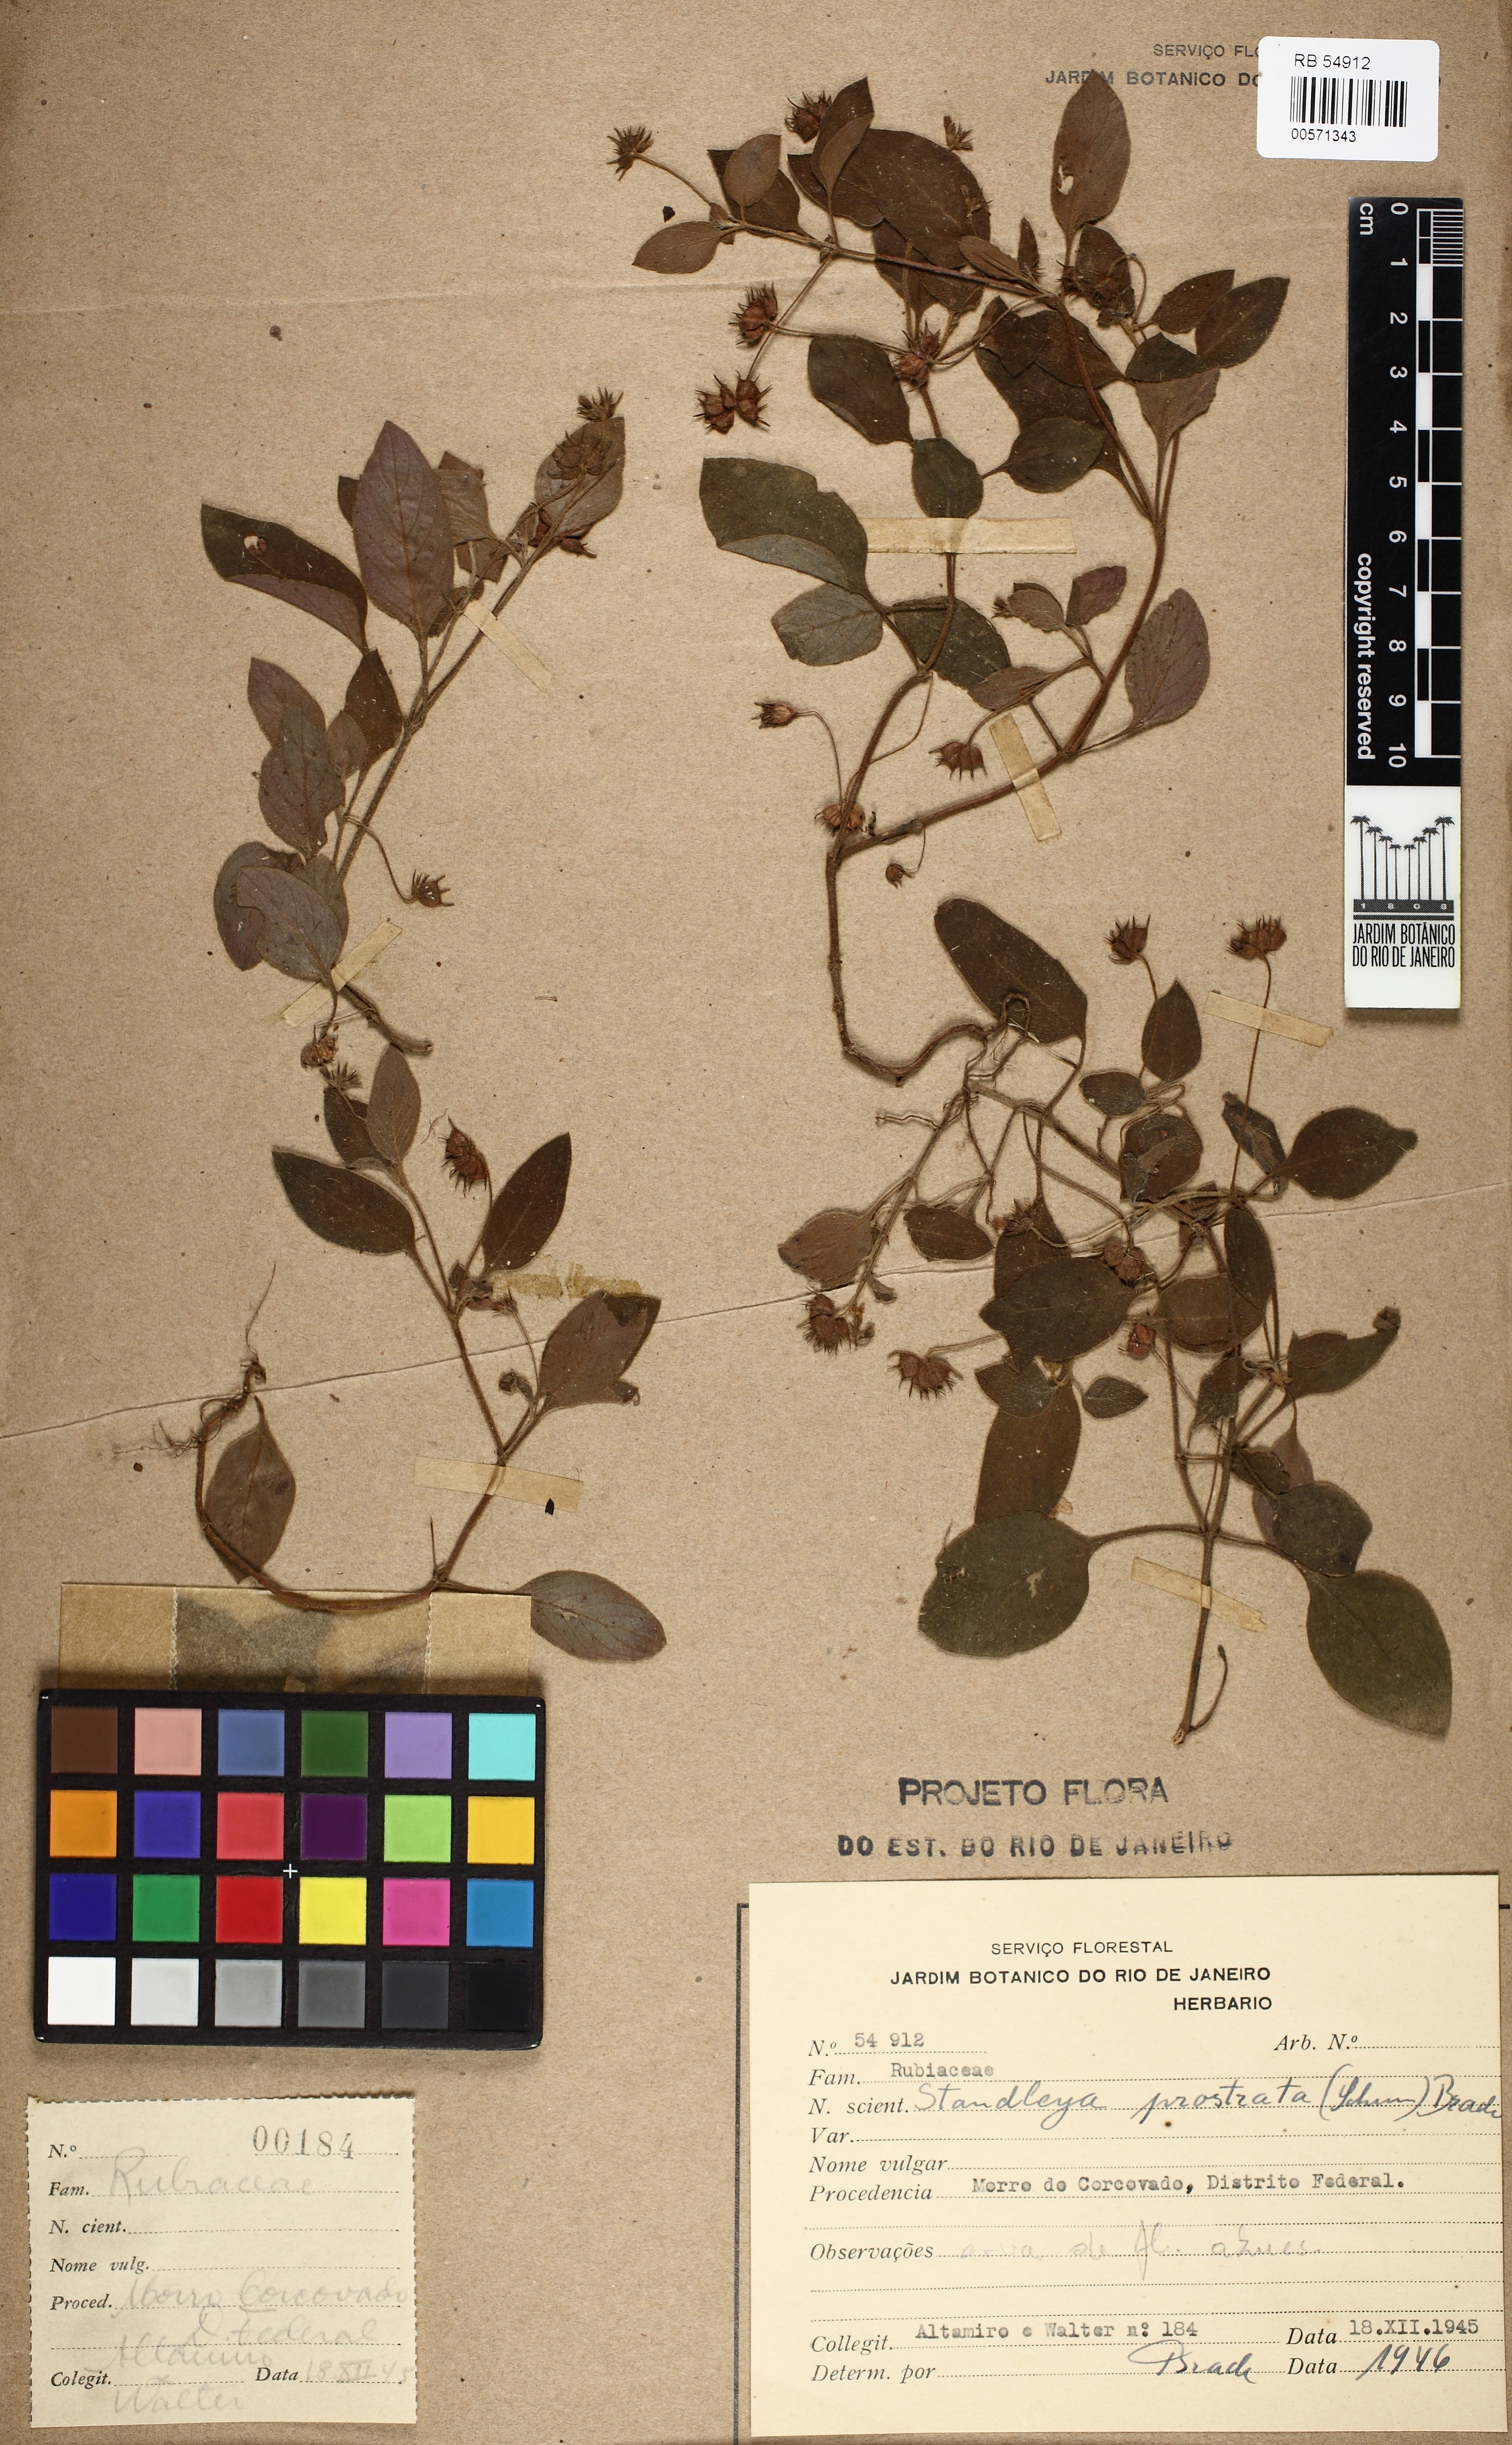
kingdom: Plantae
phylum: Tracheophyta
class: Magnoliopsida
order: Gentianales
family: Rubiaceae
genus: Standleya
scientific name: Standleya prostrata
